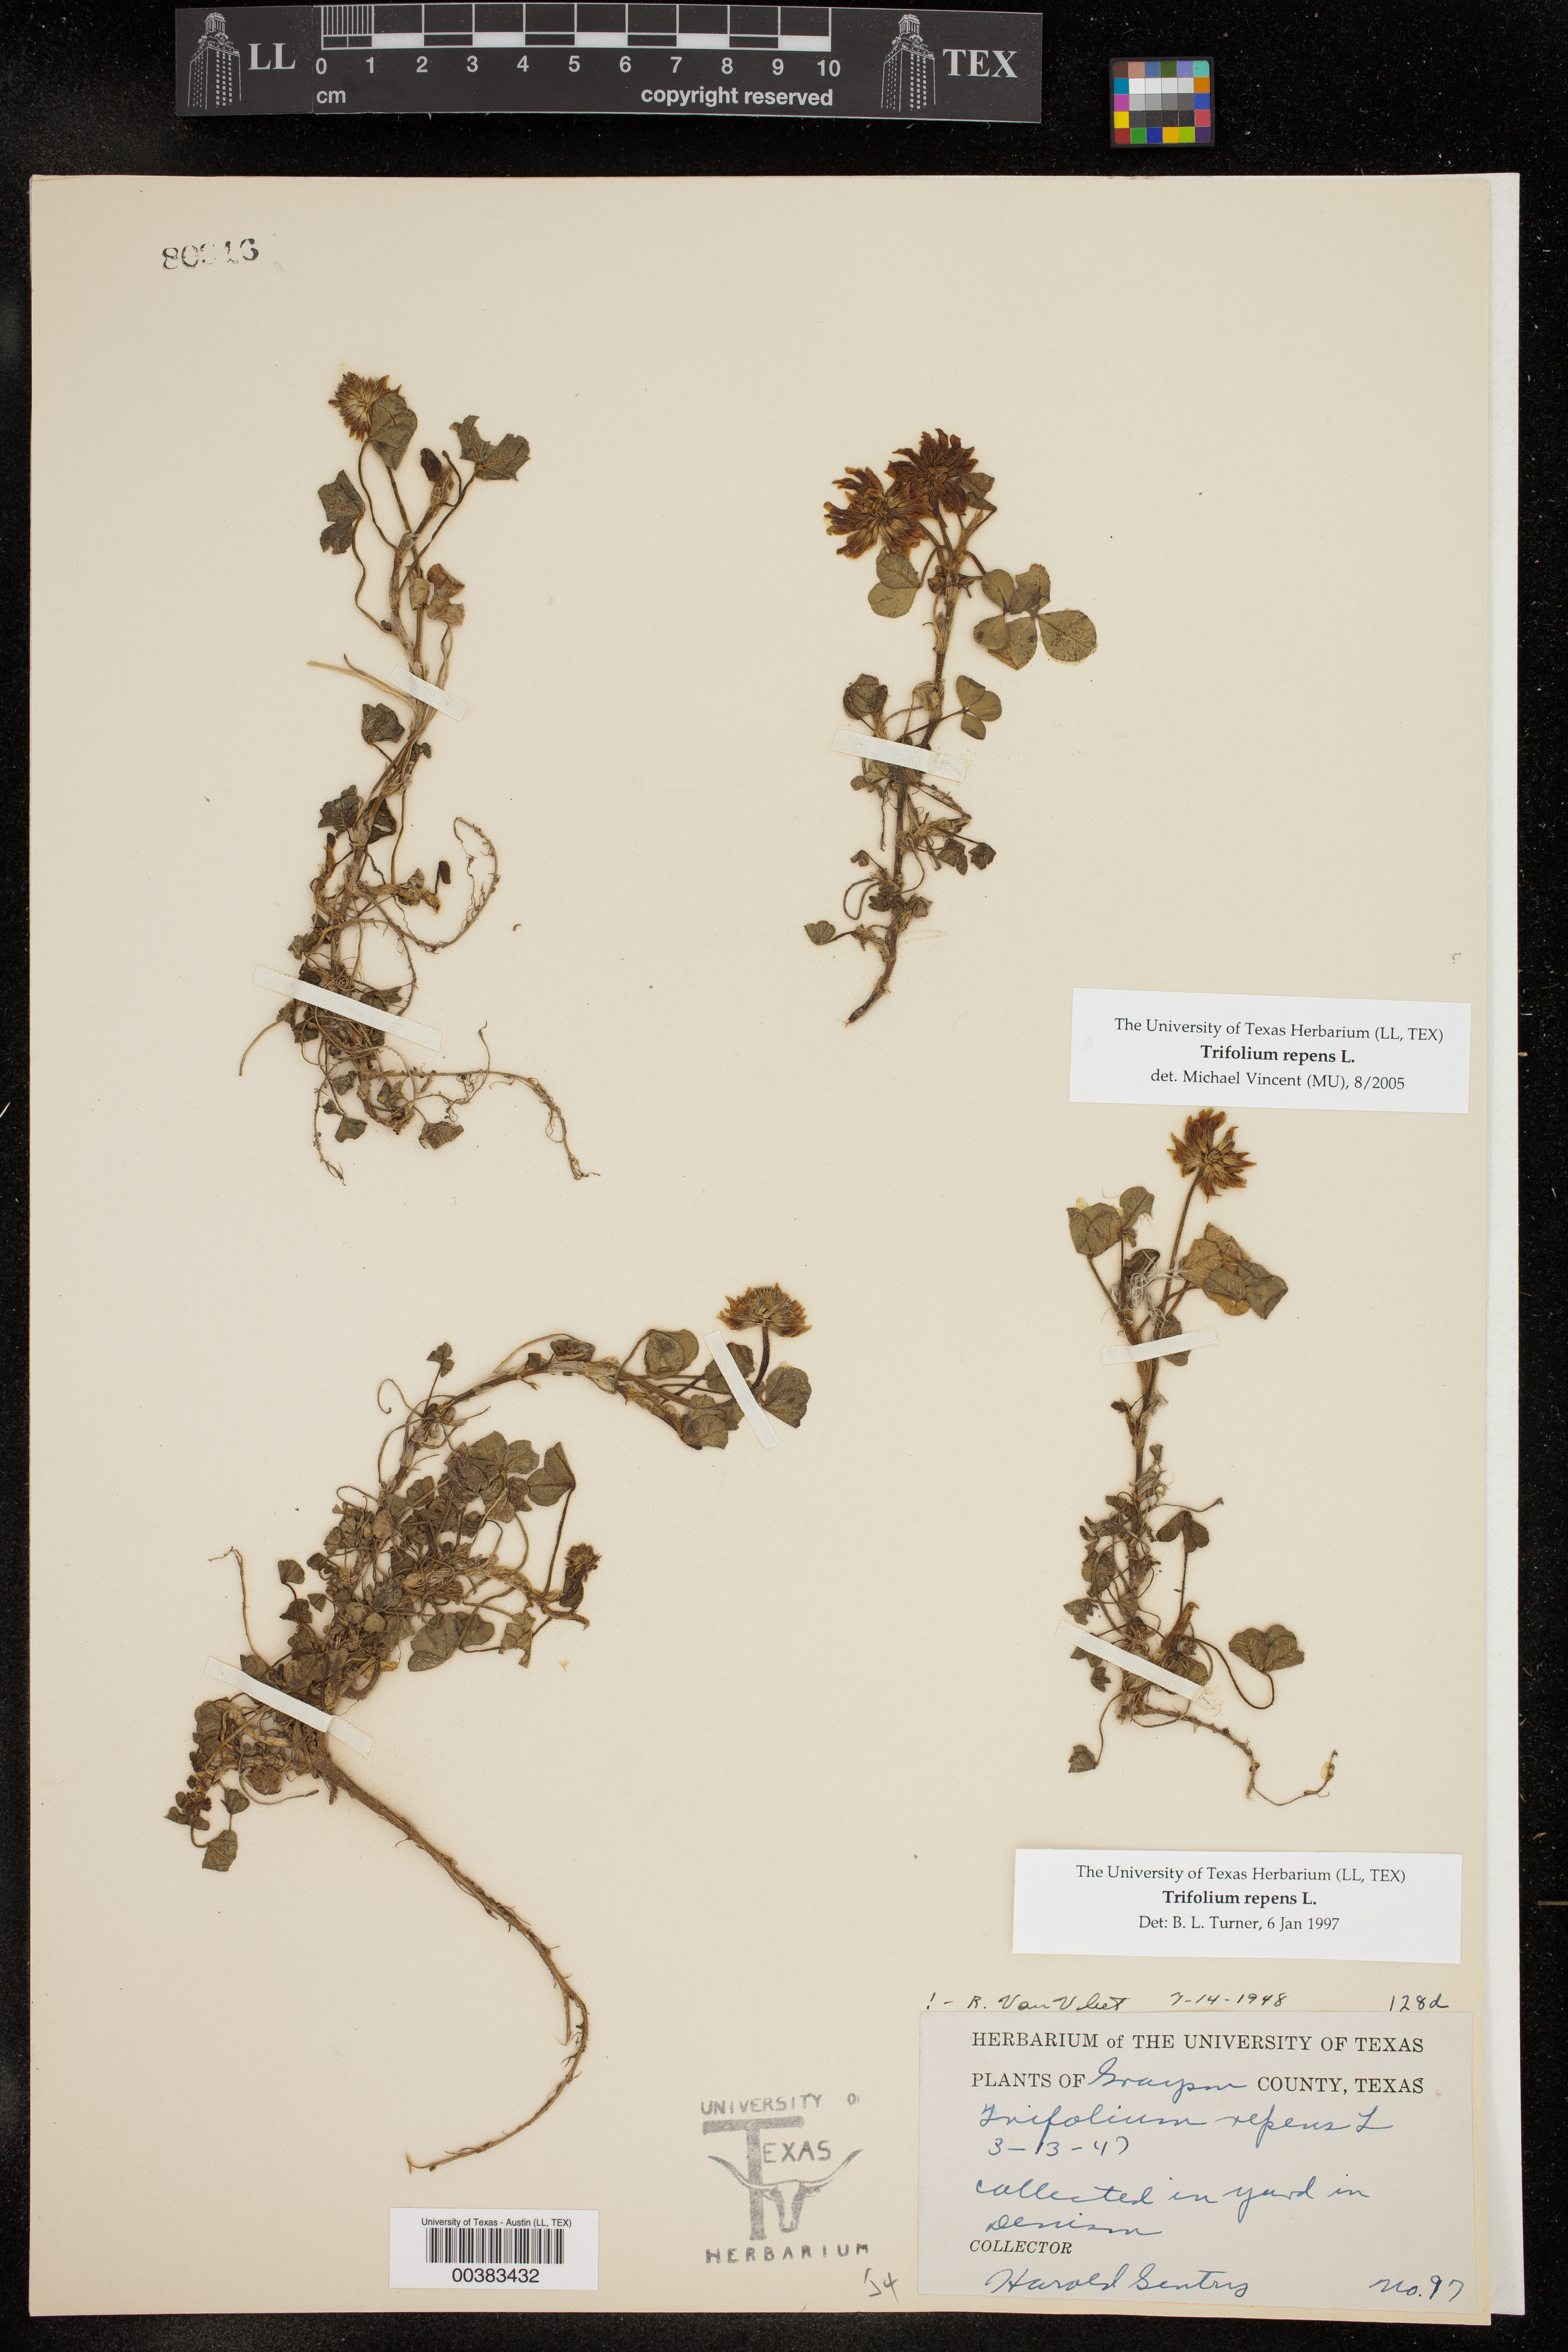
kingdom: Plantae
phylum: Tracheophyta
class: Magnoliopsida
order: Fabales
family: Fabaceae
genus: Trifolium
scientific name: Trifolium repens
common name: White clover
